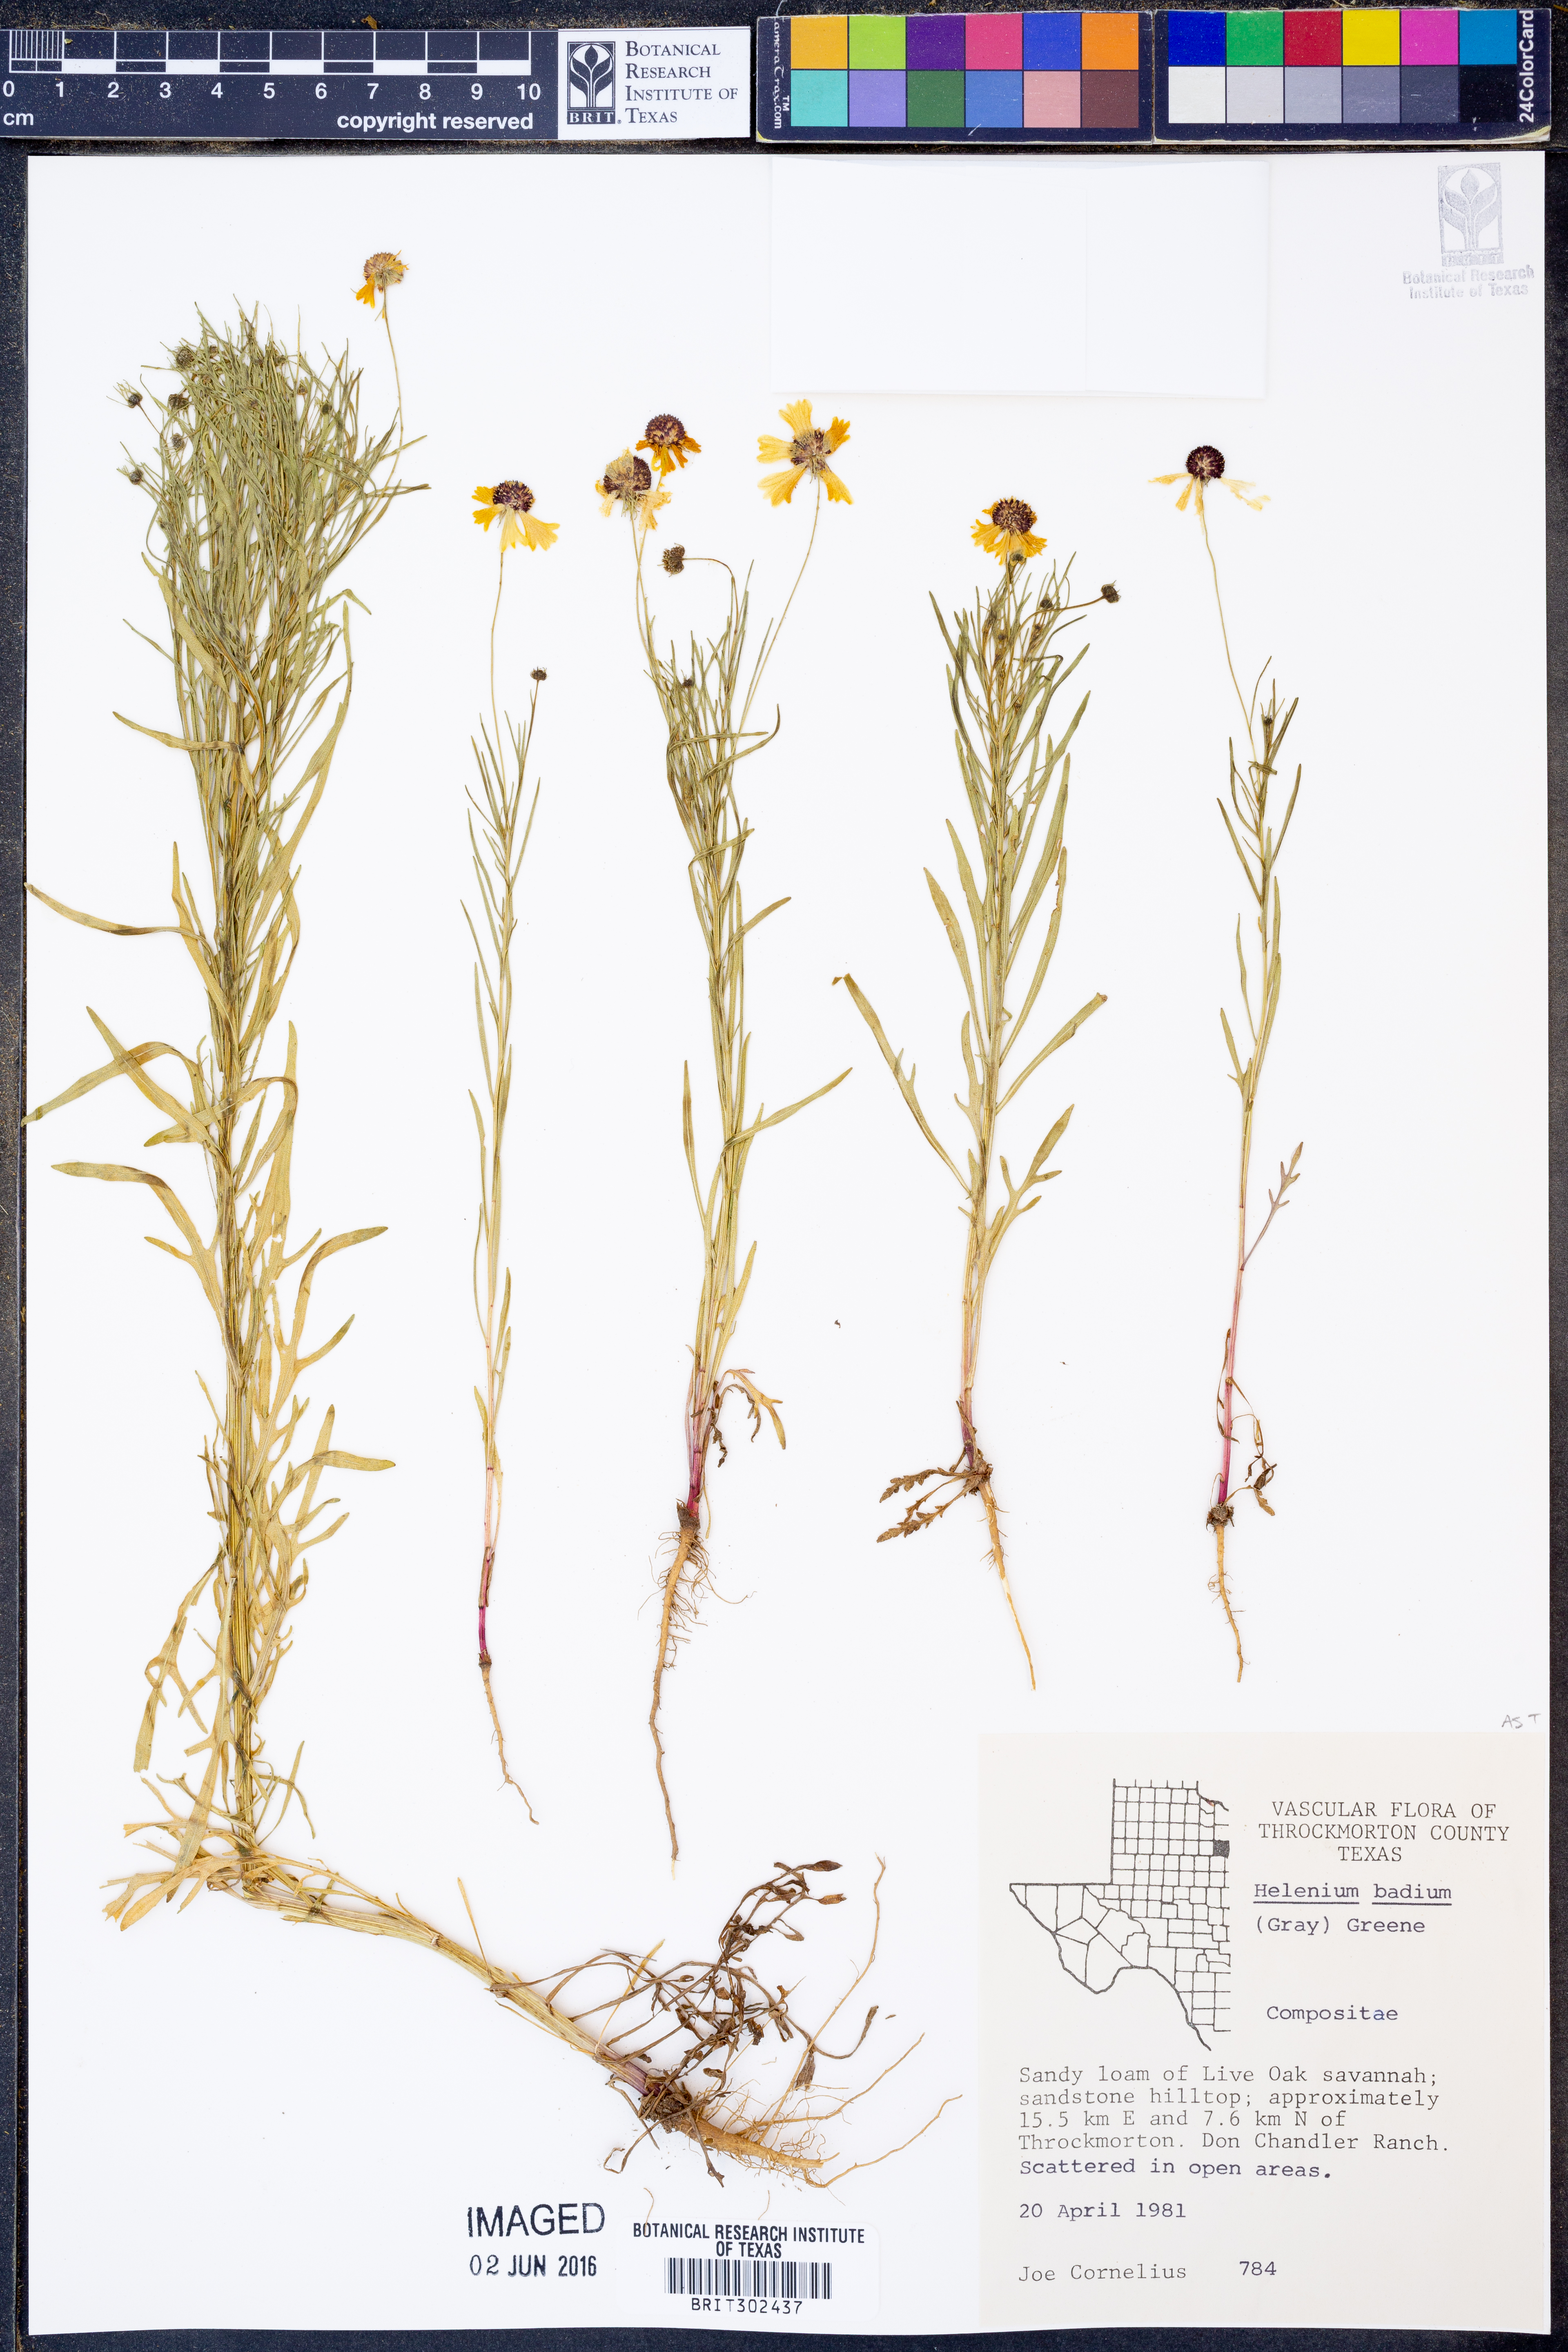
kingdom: Plantae
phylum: Tracheophyta
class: Magnoliopsida
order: Asterales
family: Asteraceae
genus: Helenium
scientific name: Helenium amarum
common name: Bitter sneezeweed
